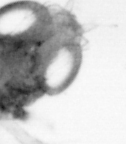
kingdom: Animalia
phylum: Arthropoda
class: Copepoda
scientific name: Copepoda
